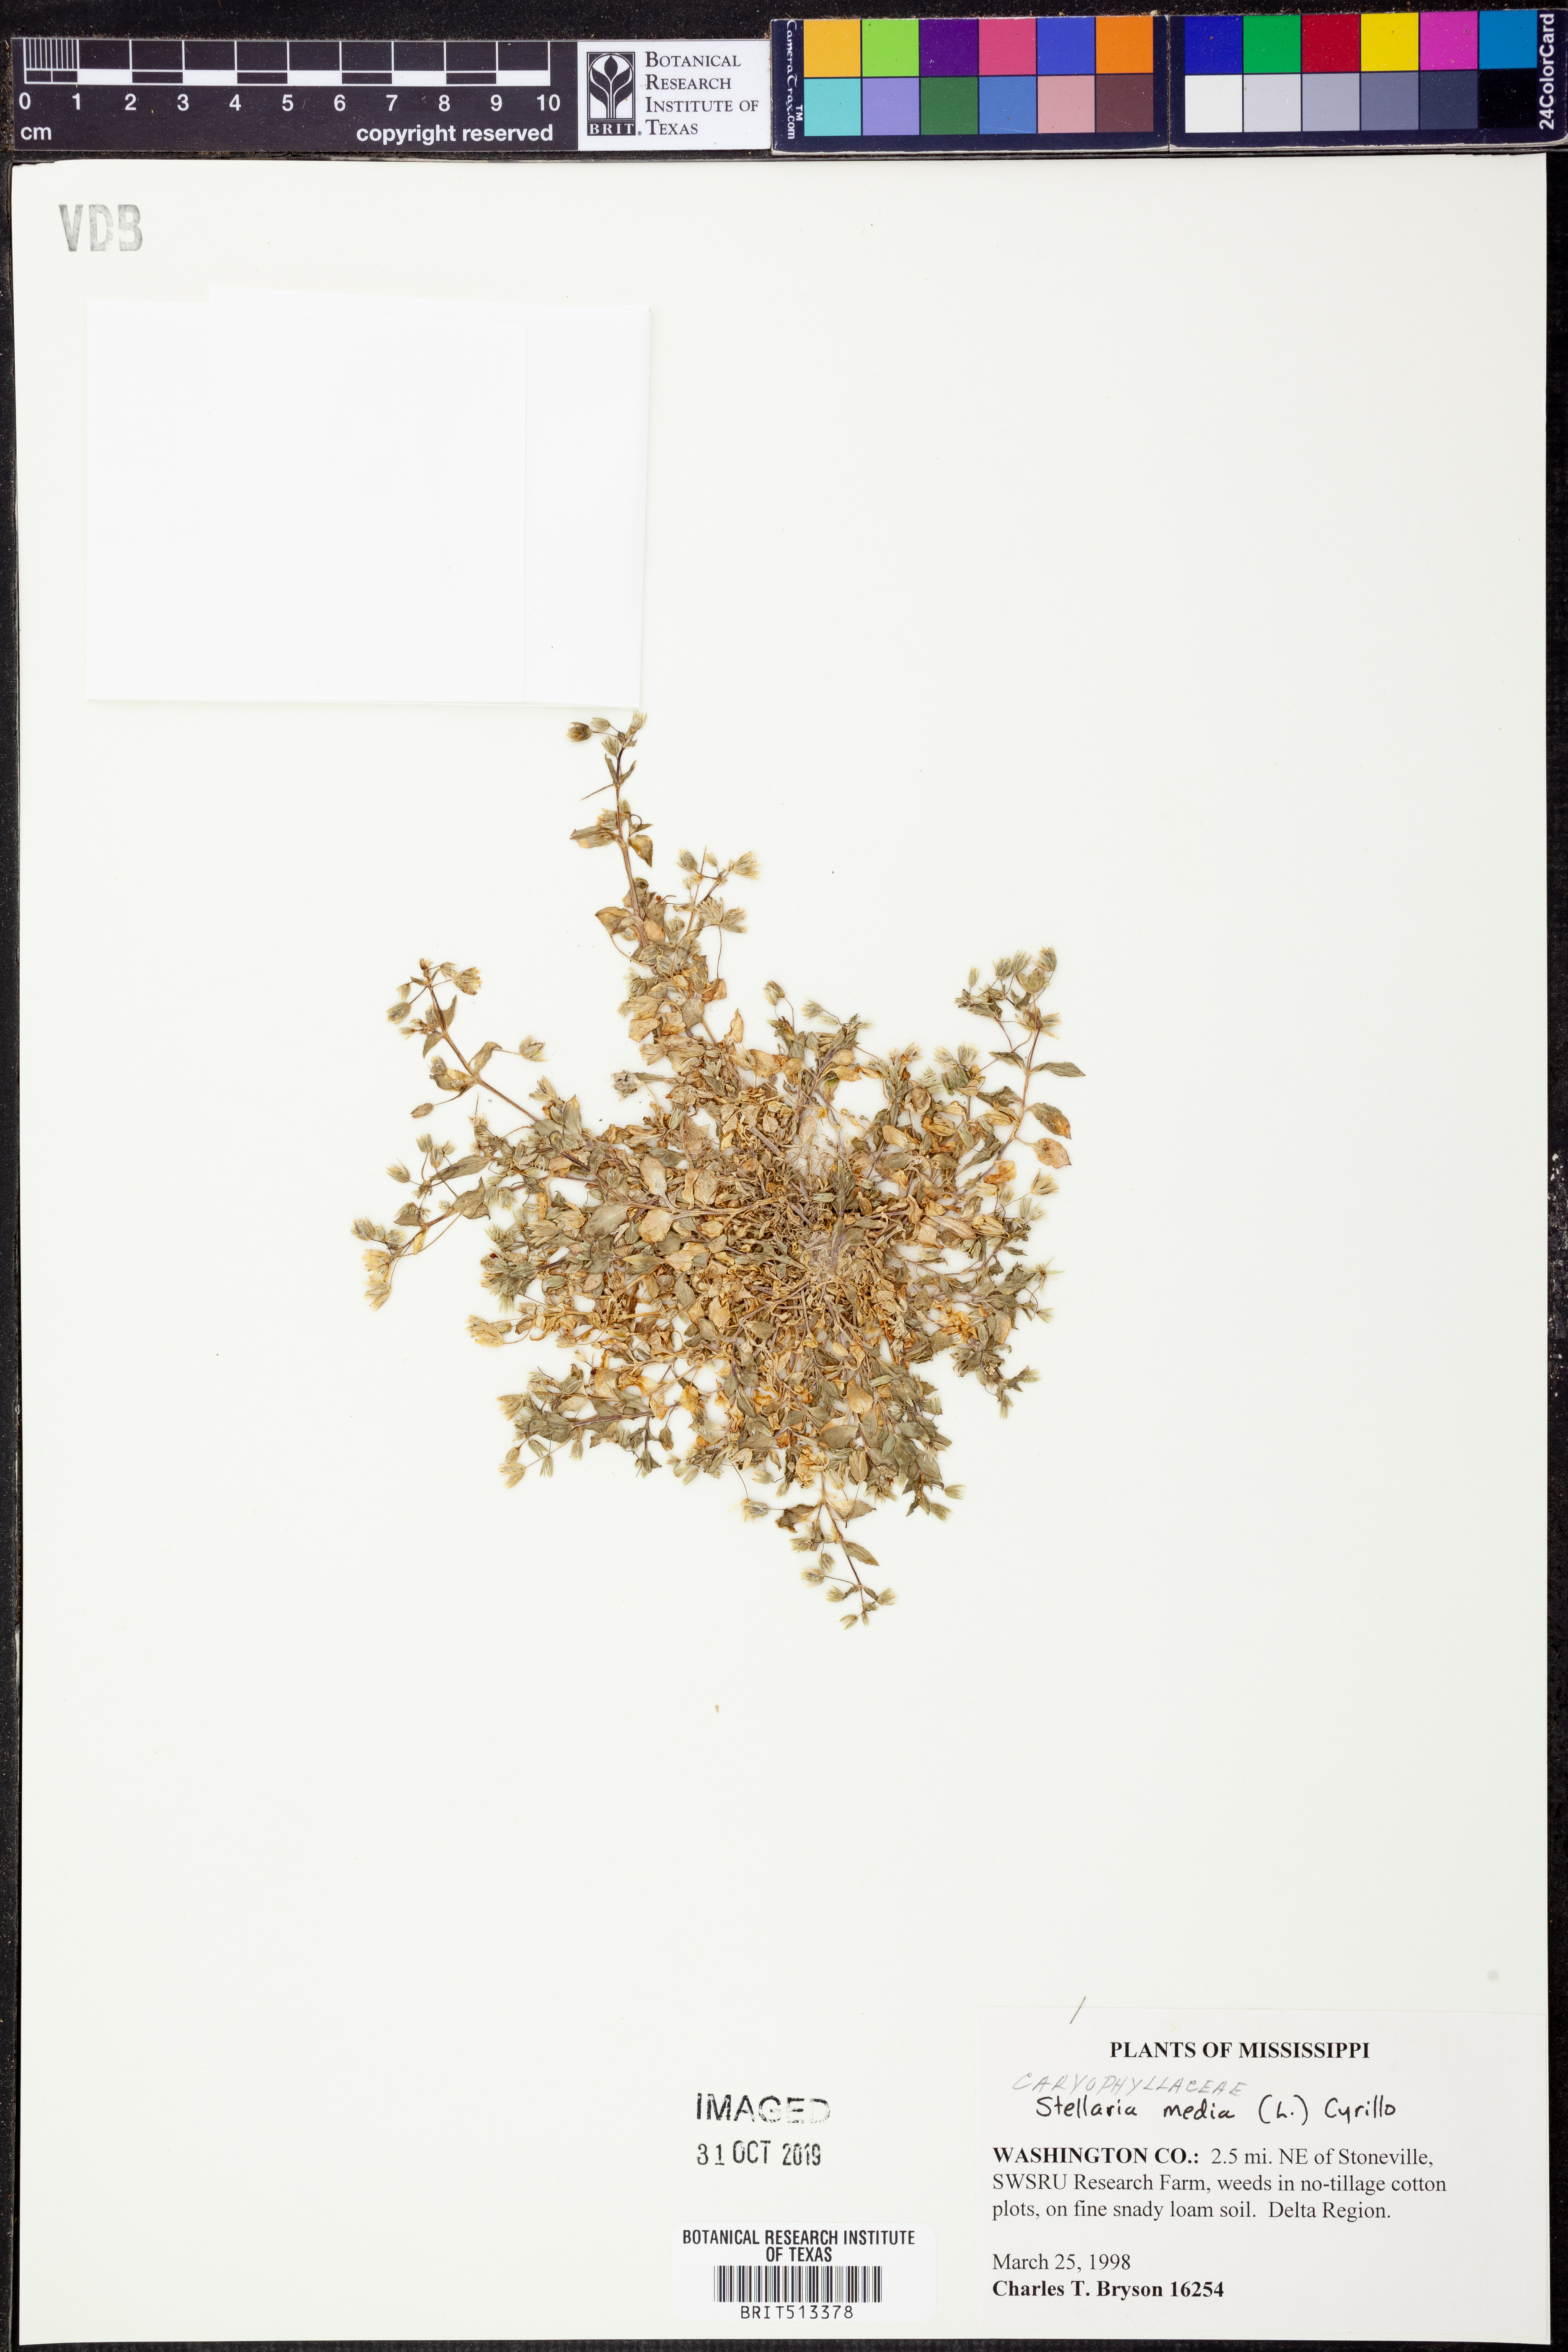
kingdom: Plantae
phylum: Tracheophyta
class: Magnoliopsida
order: Caryophyllales
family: Caryophyllaceae
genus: Stellaria
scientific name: Stellaria media
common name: Common chickweed
